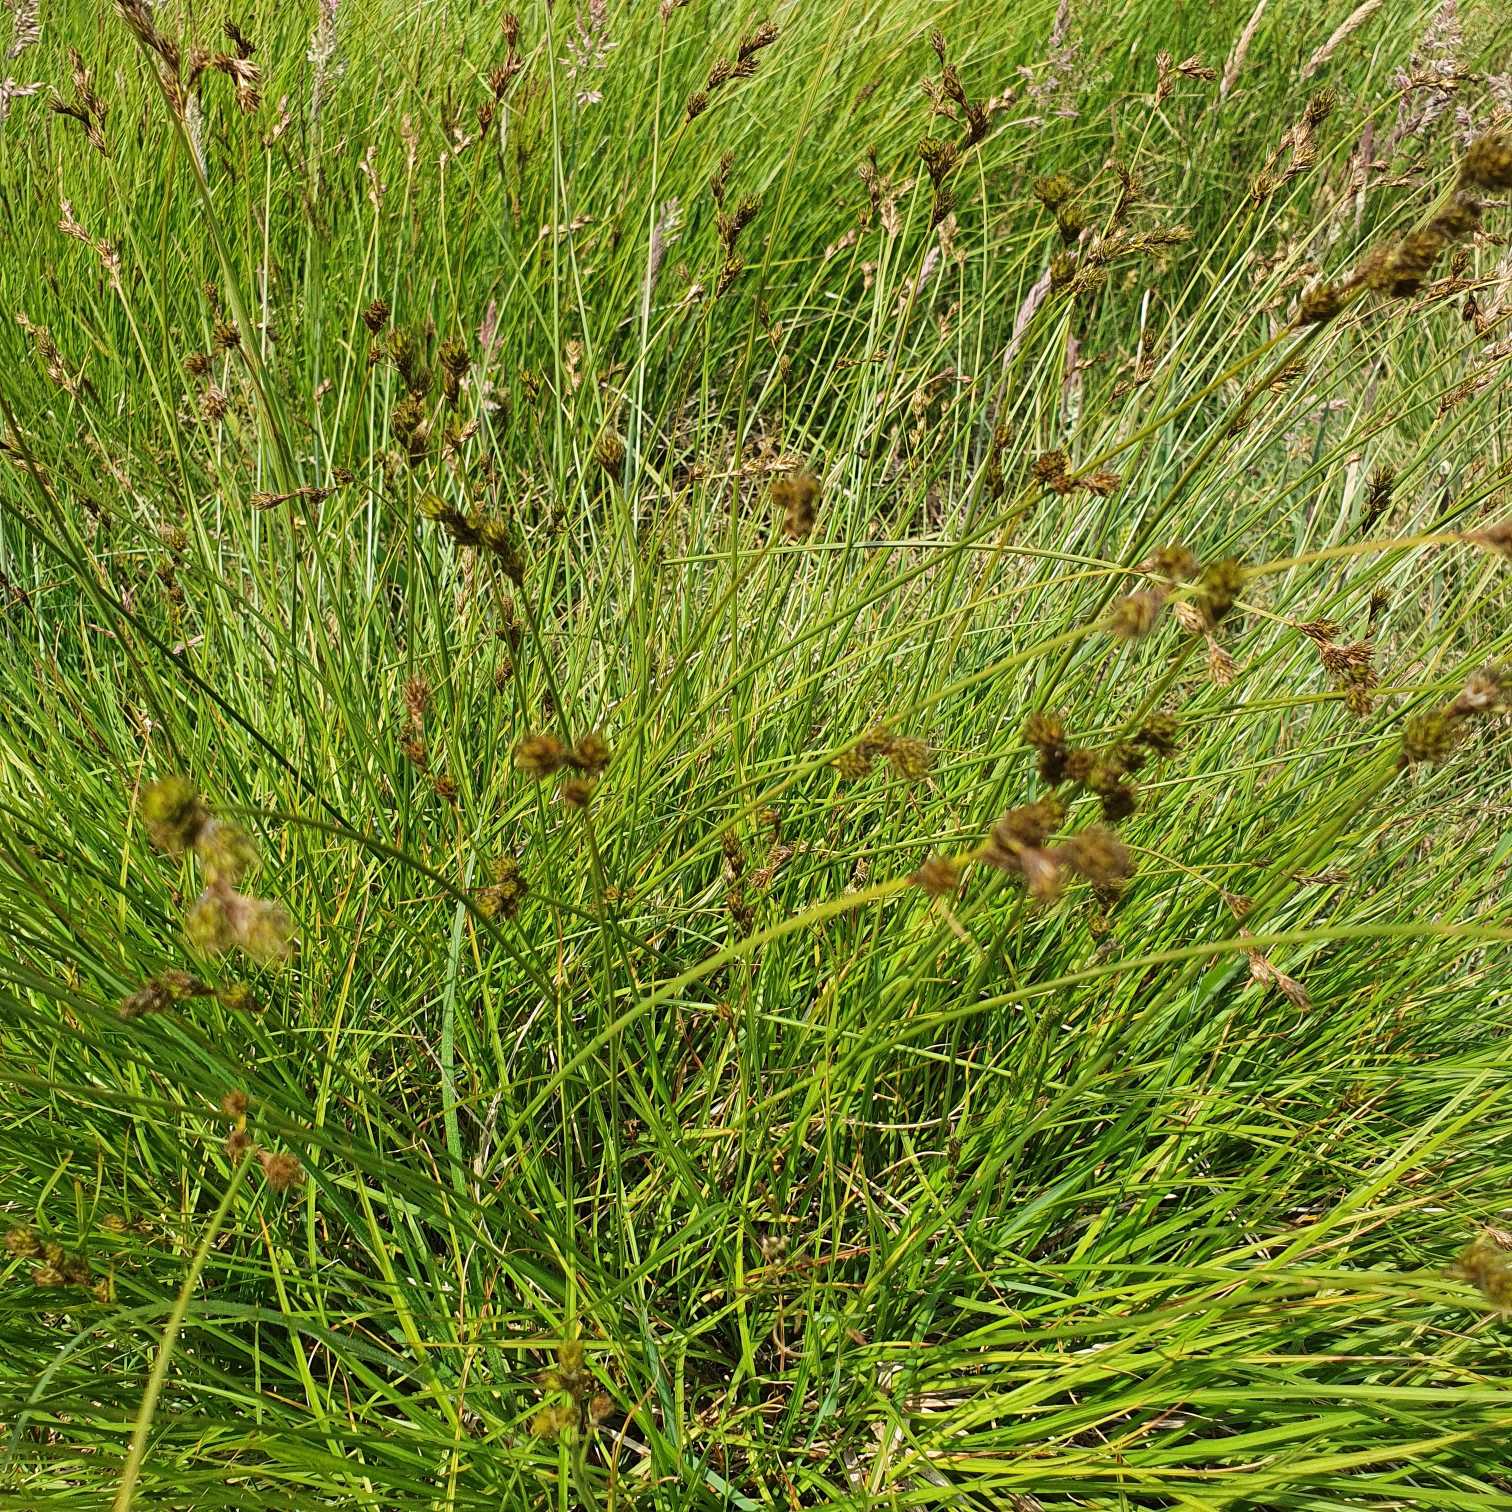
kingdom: Plantae
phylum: Tracheophyta
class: Liliopsida
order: Poales
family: Cyperaceae
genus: Carex
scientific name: Carex leporina
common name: Hare-star
